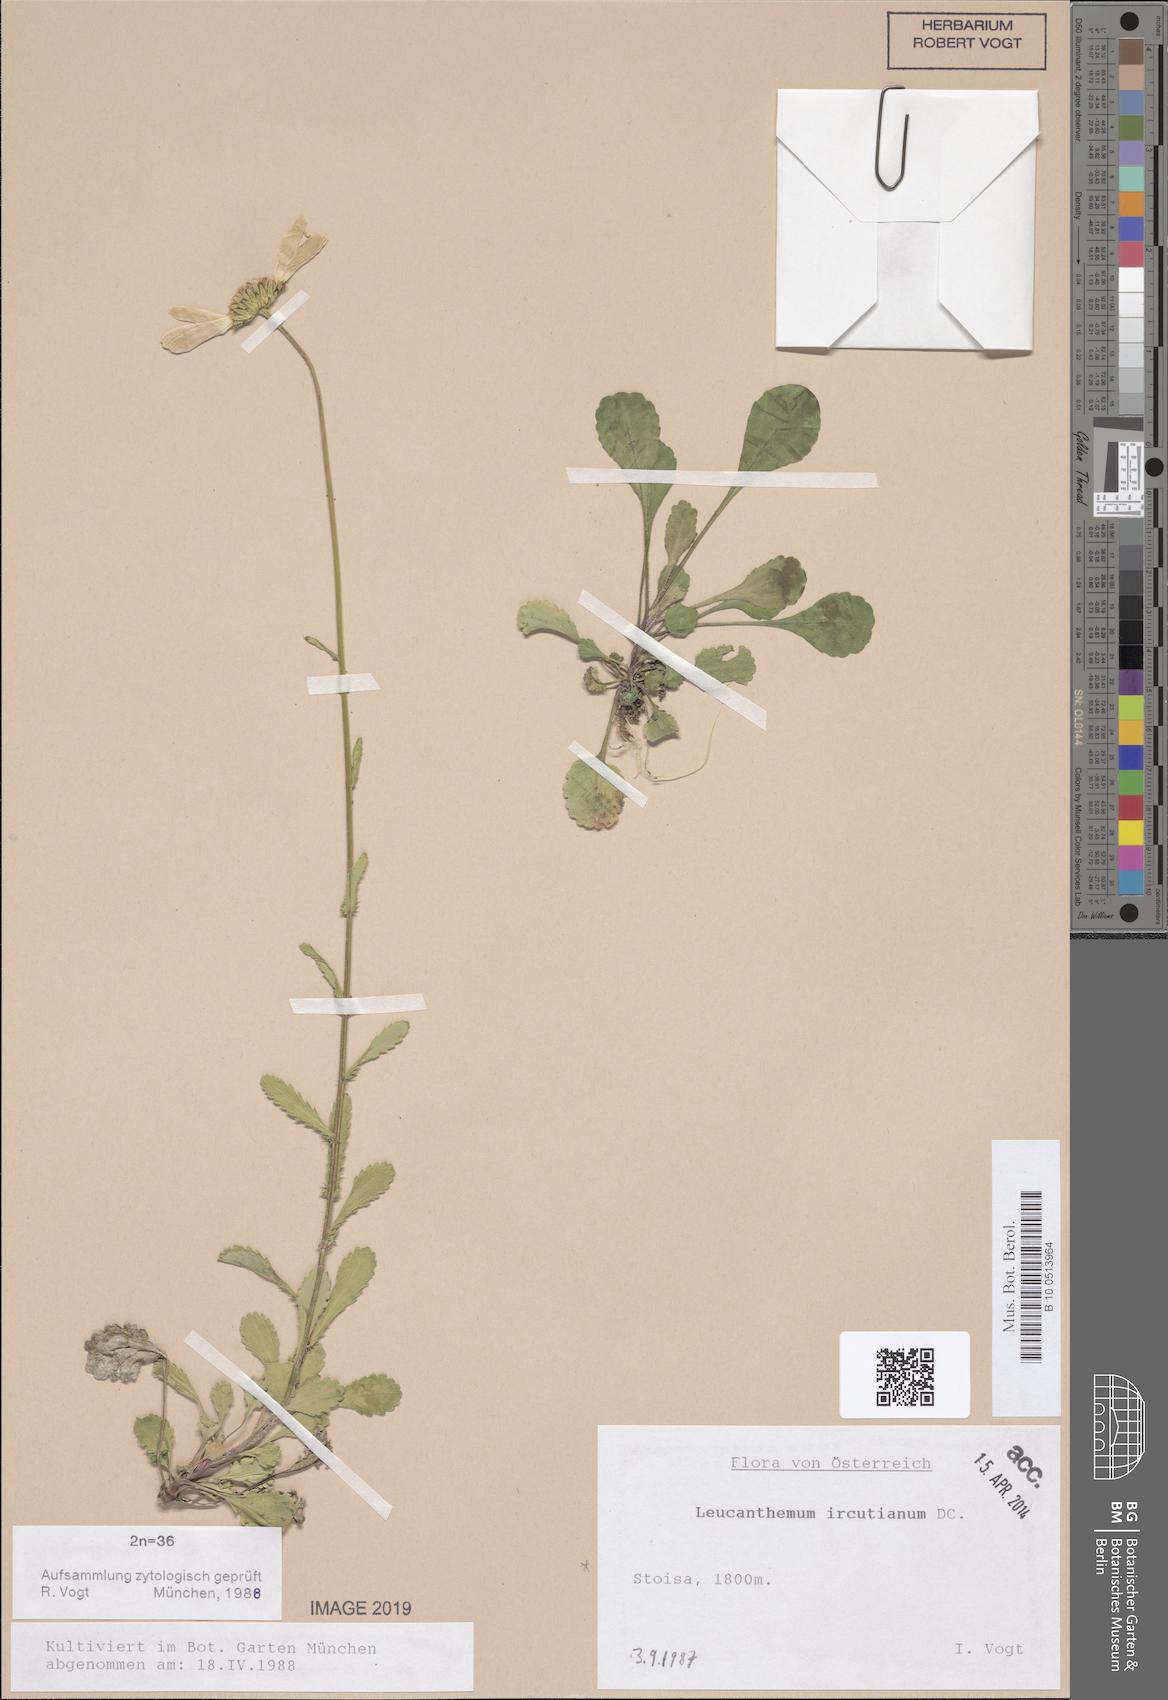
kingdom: Plantae
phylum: Tracheophyta
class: Magnoliopsida
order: Asterales
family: Asteraceae
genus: Leucanthemum
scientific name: Leucanthemum ircutianum
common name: Daisy
